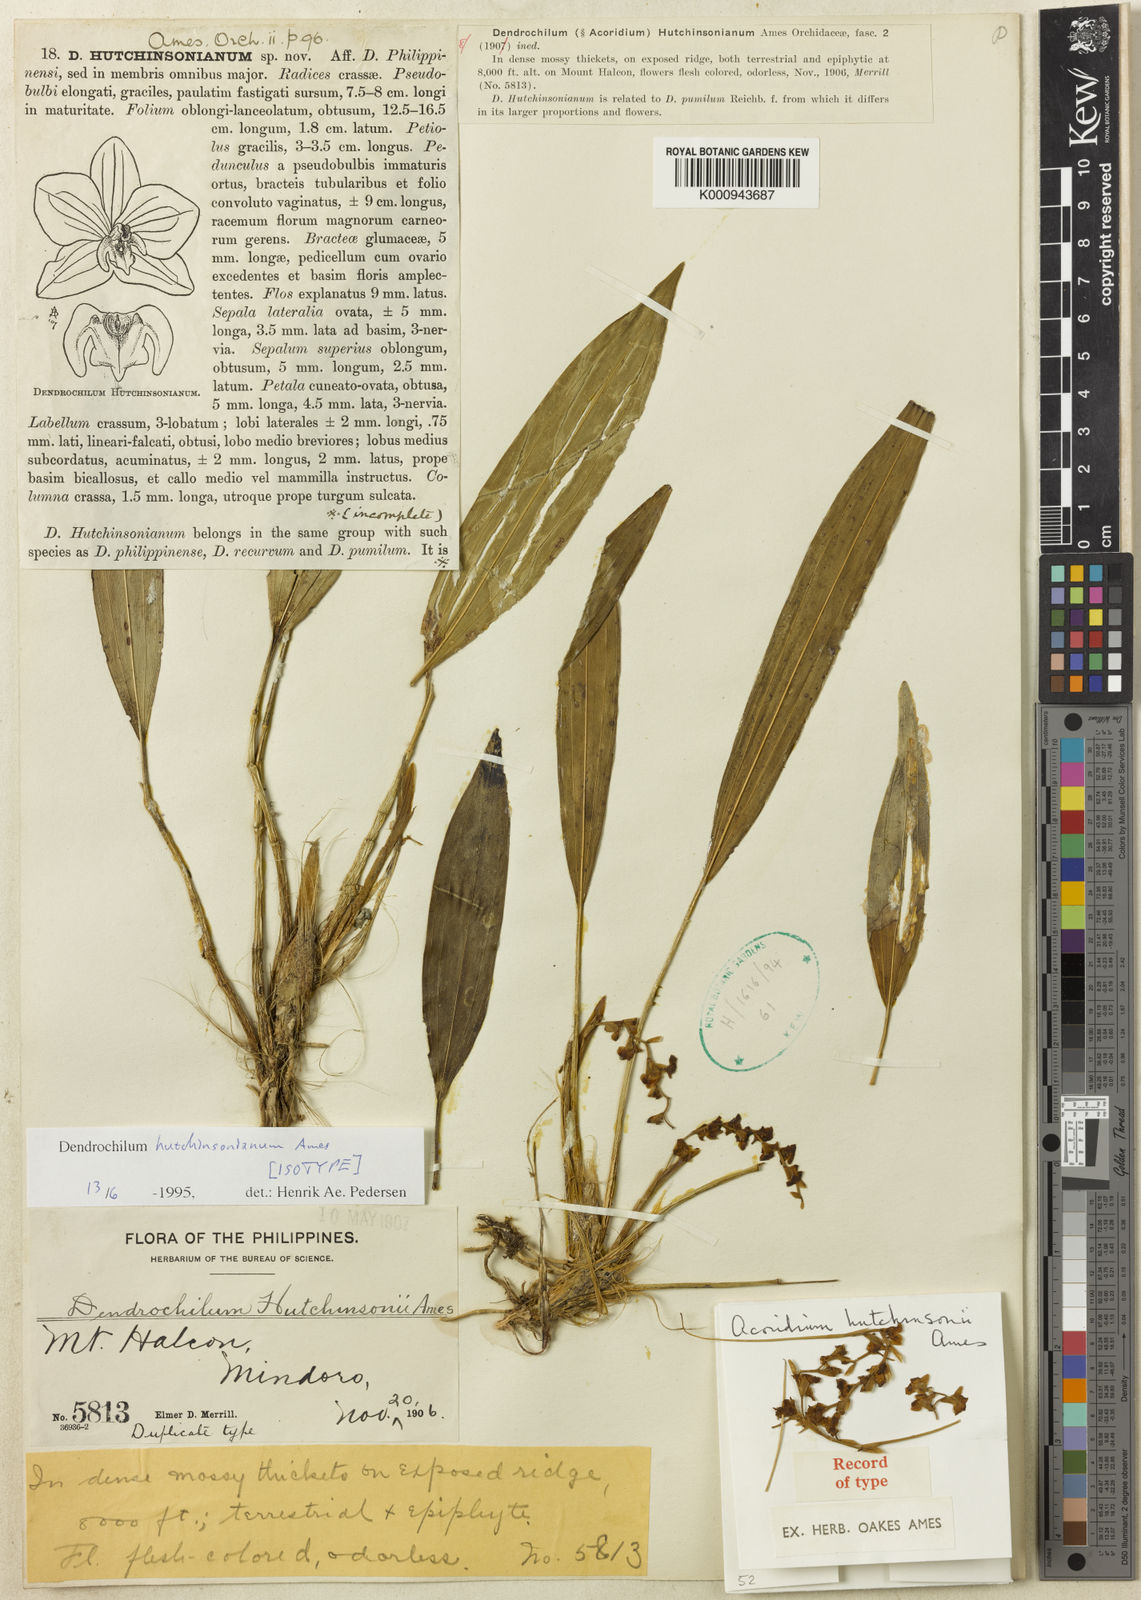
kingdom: Plantae
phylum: Tracheophyta
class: Liliopsida
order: Asparagales
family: Orchidaceae
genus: Coelogyne
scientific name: Coelogyne hutchinsoniana
